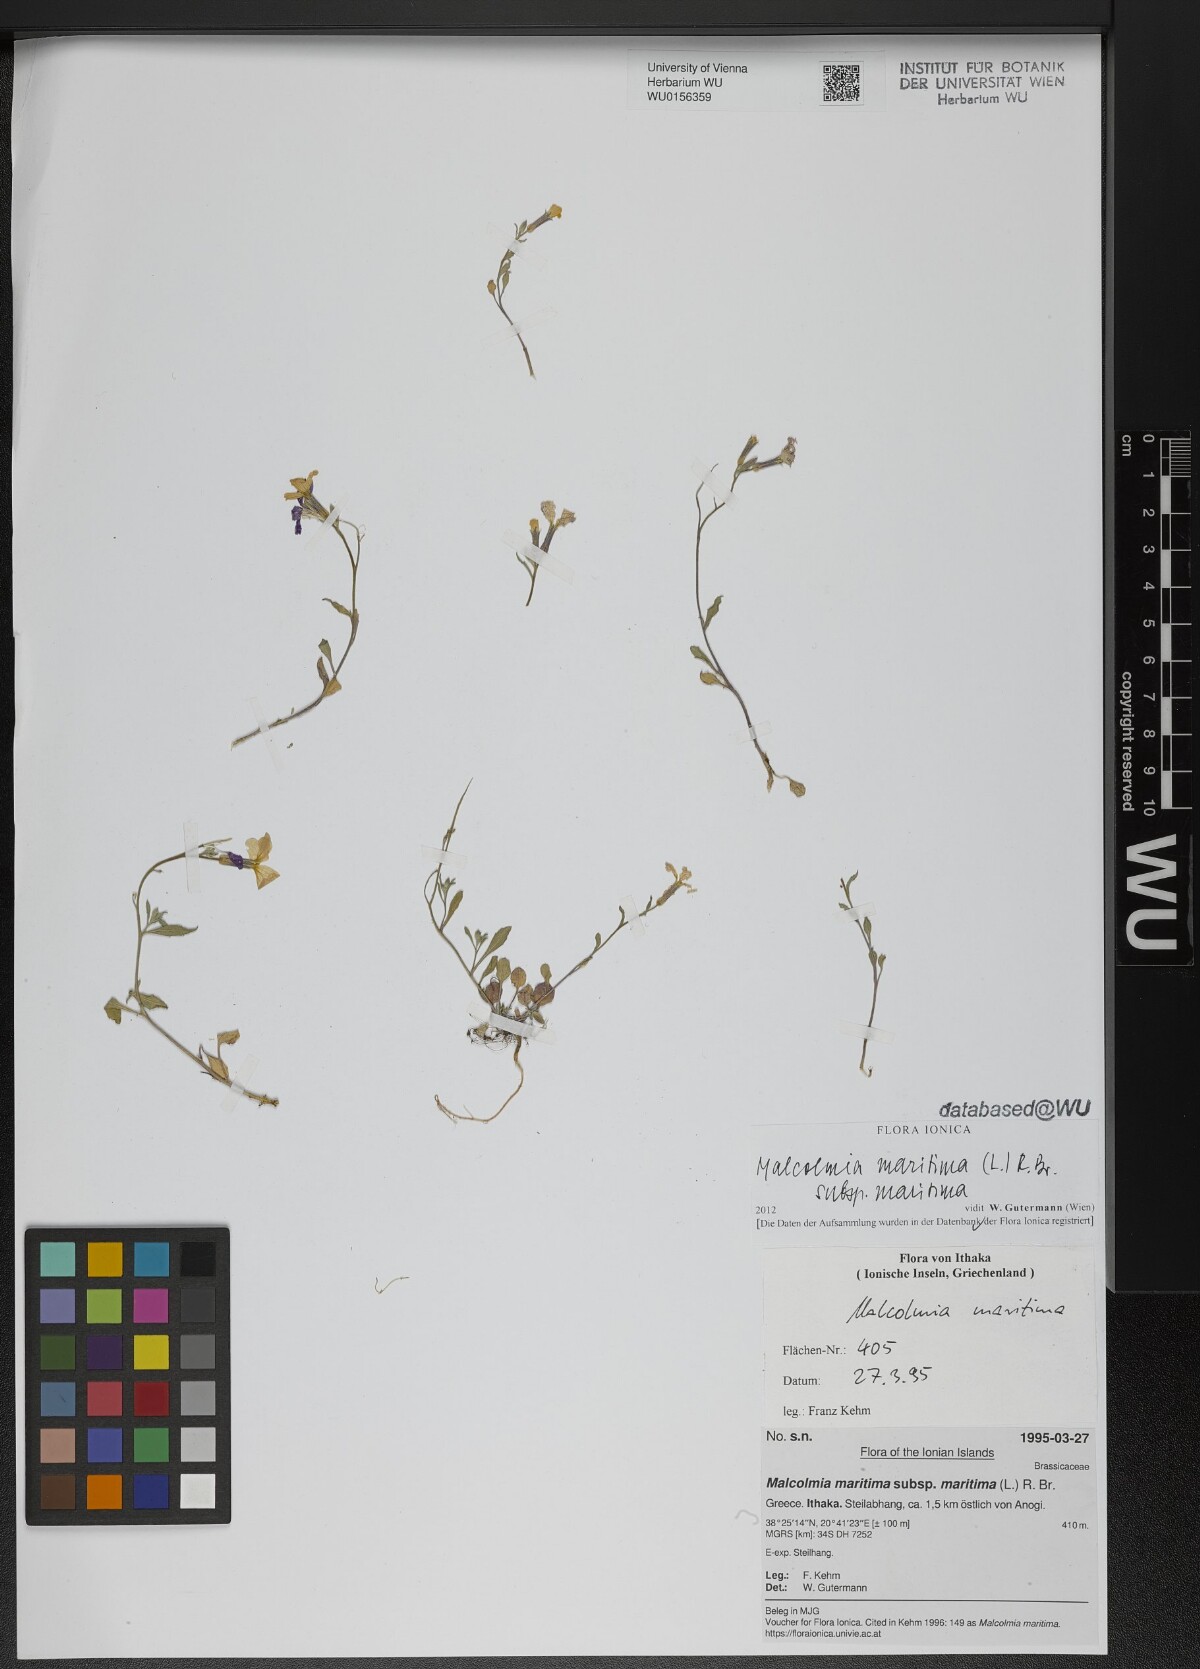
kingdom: Plantae
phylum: Tracheophyta
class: Magnoliopsida
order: Brassicales
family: Brassicaceae
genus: Malcolmia
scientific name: Malcolmia maritima
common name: Virginia stock
